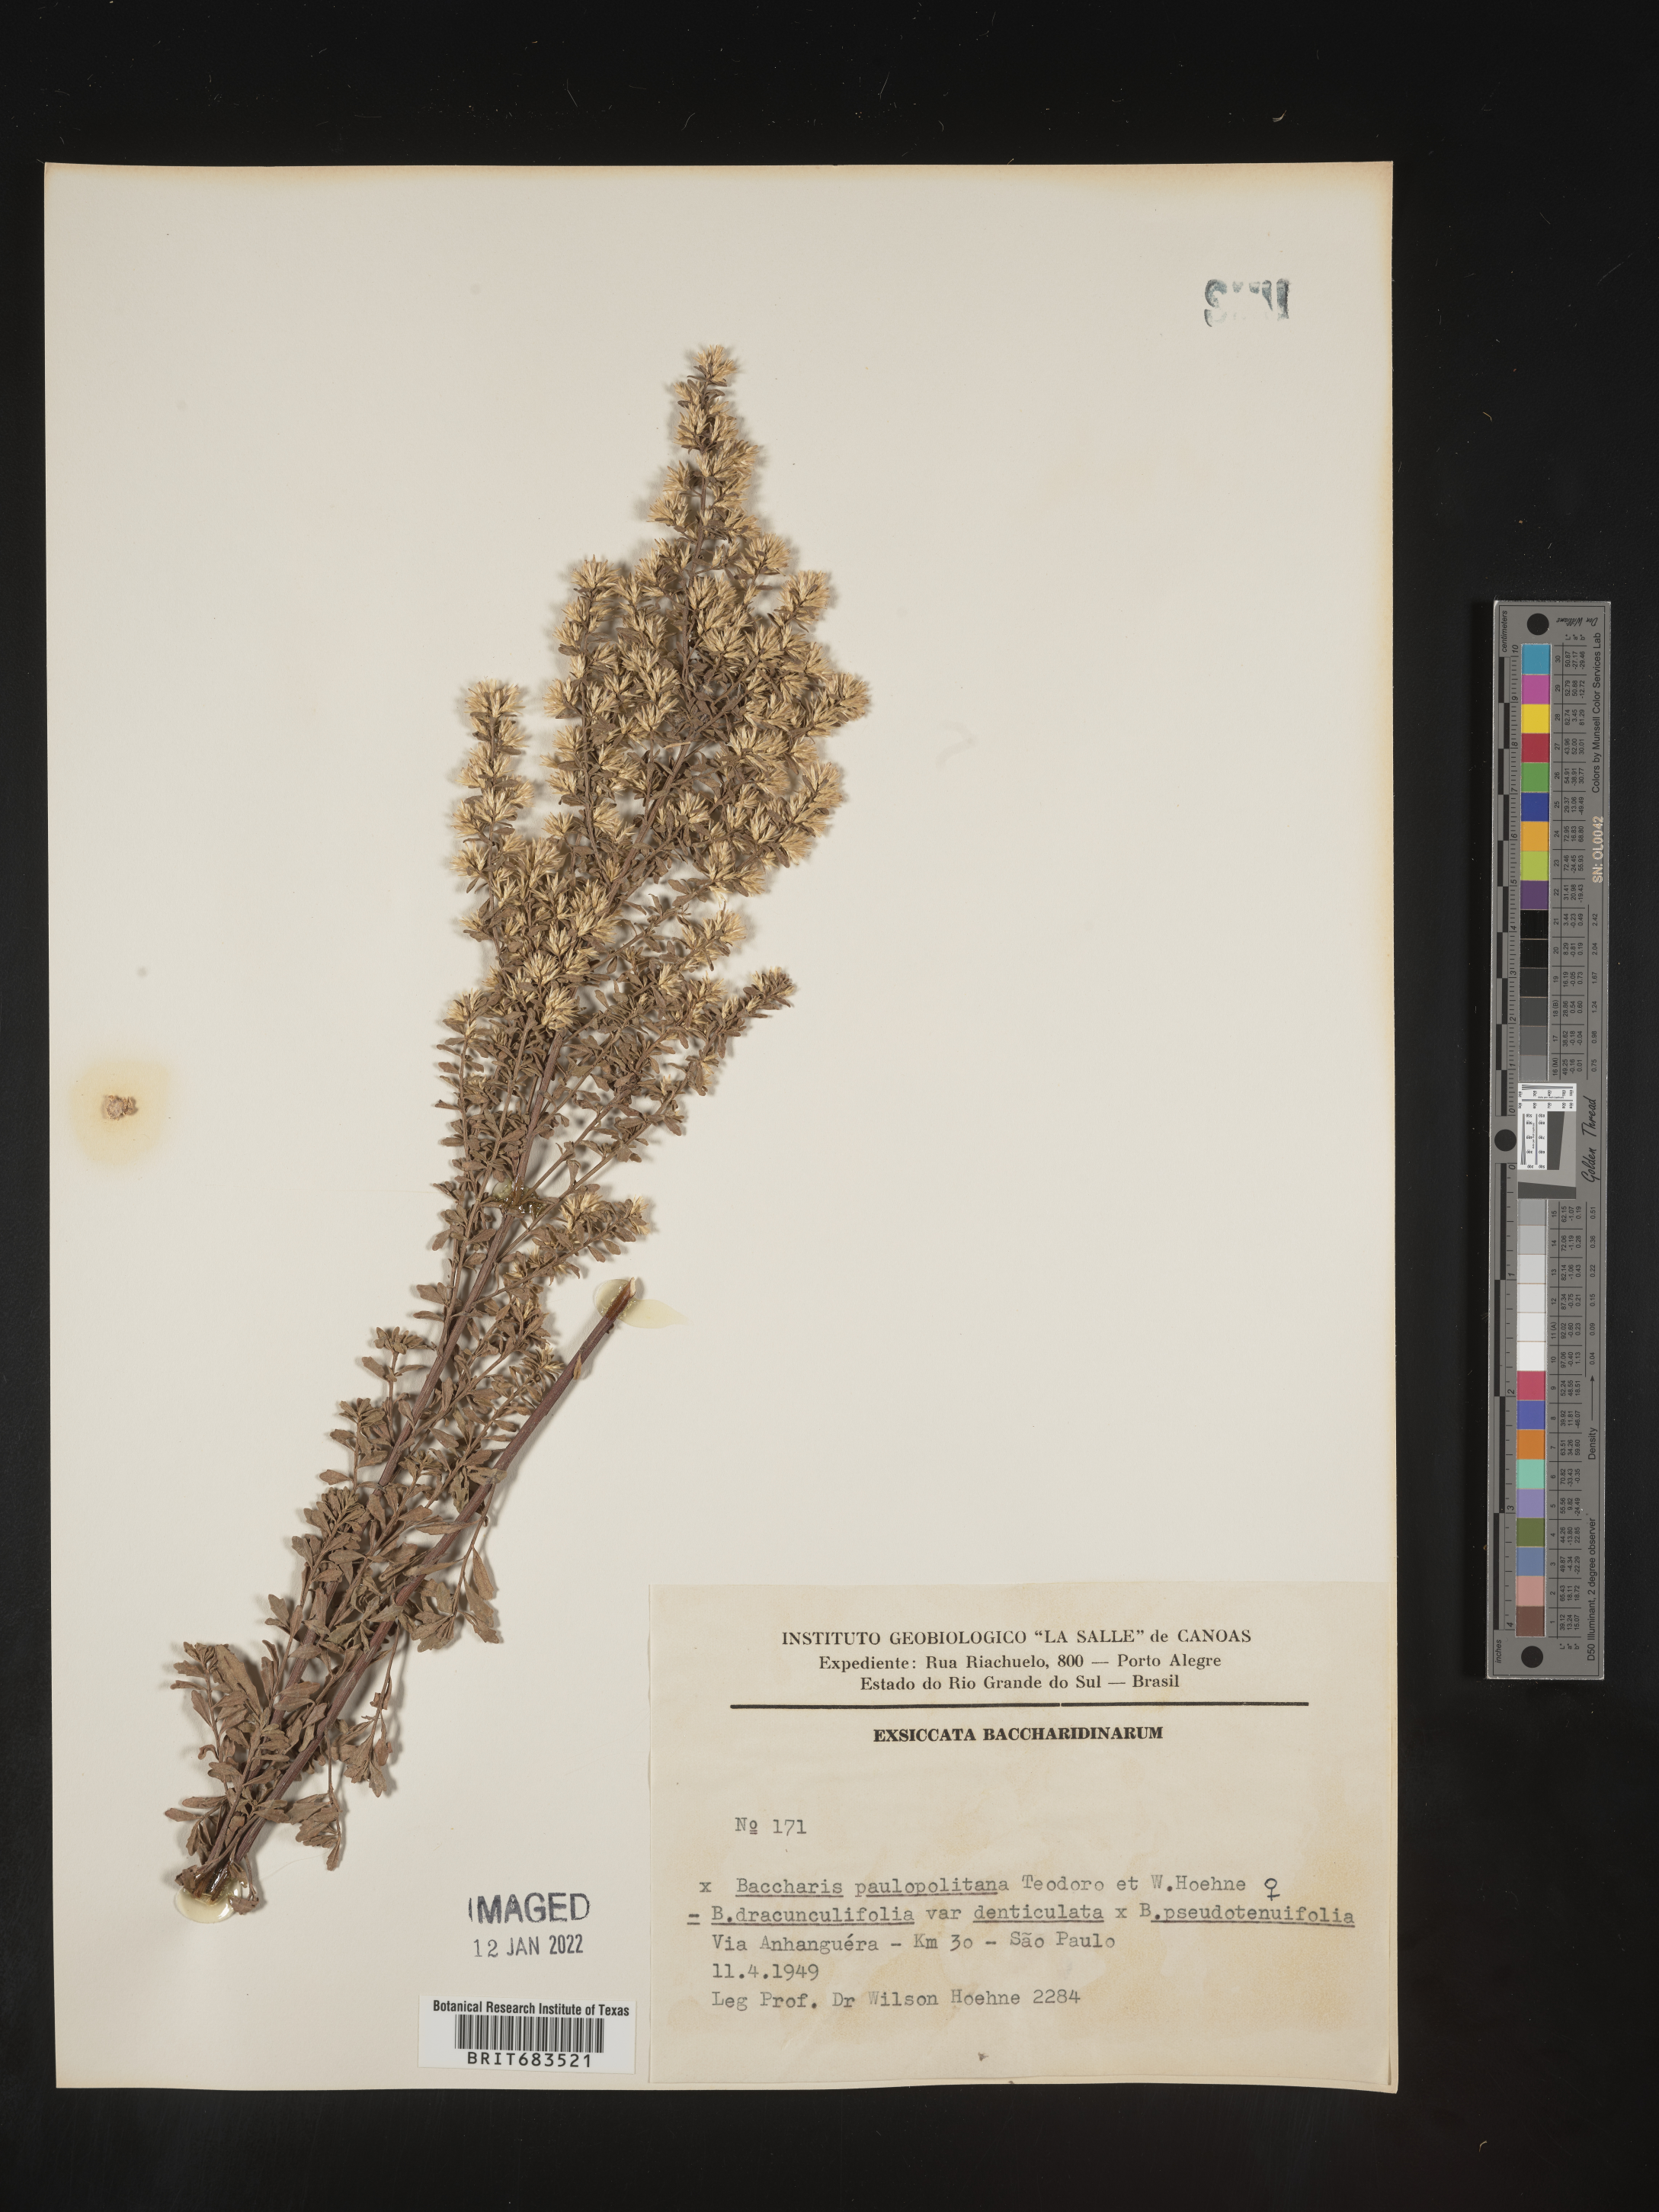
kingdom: Plantae
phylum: Tracheophyta
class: Magnoliopsida
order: Asterales
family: Asteraceae
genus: Baccharis
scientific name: Baccharis
